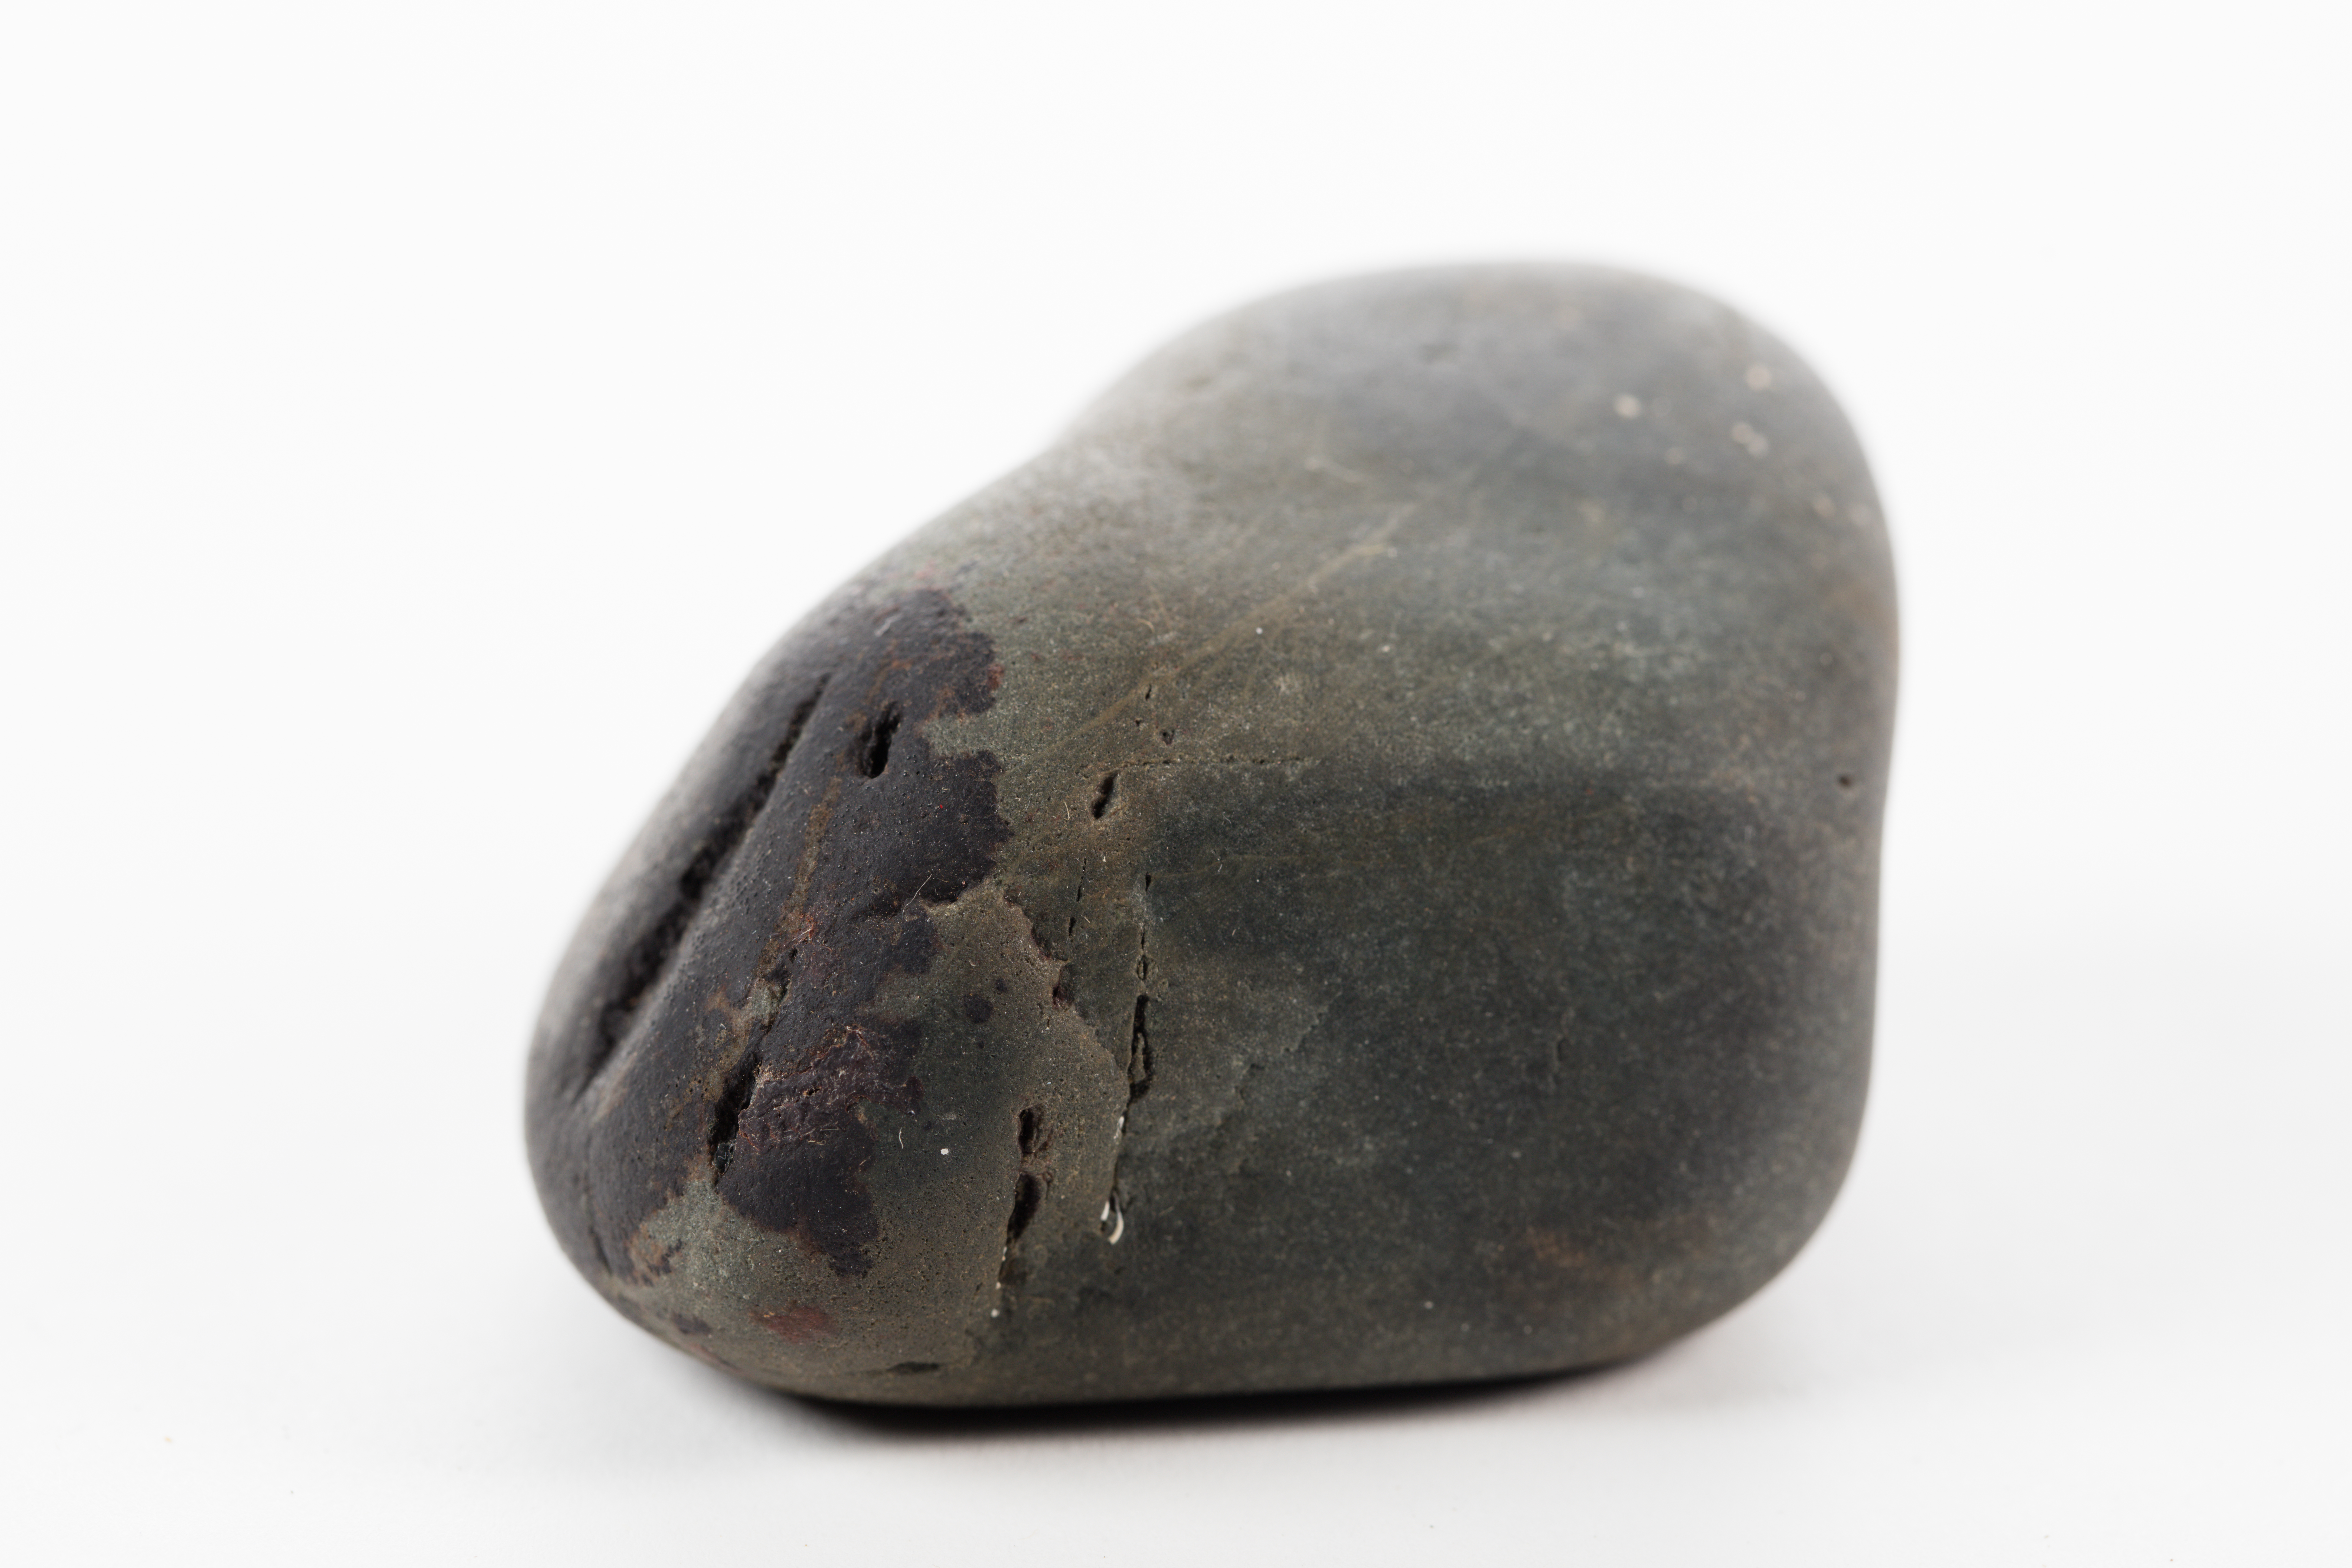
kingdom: Fungi
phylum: Ascomycota
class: Eurotiomycetes
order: Verrucariales
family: Verrucariaceae
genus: Hydropunctaria
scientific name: Hydropunctaria maura
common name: Tar lichen
